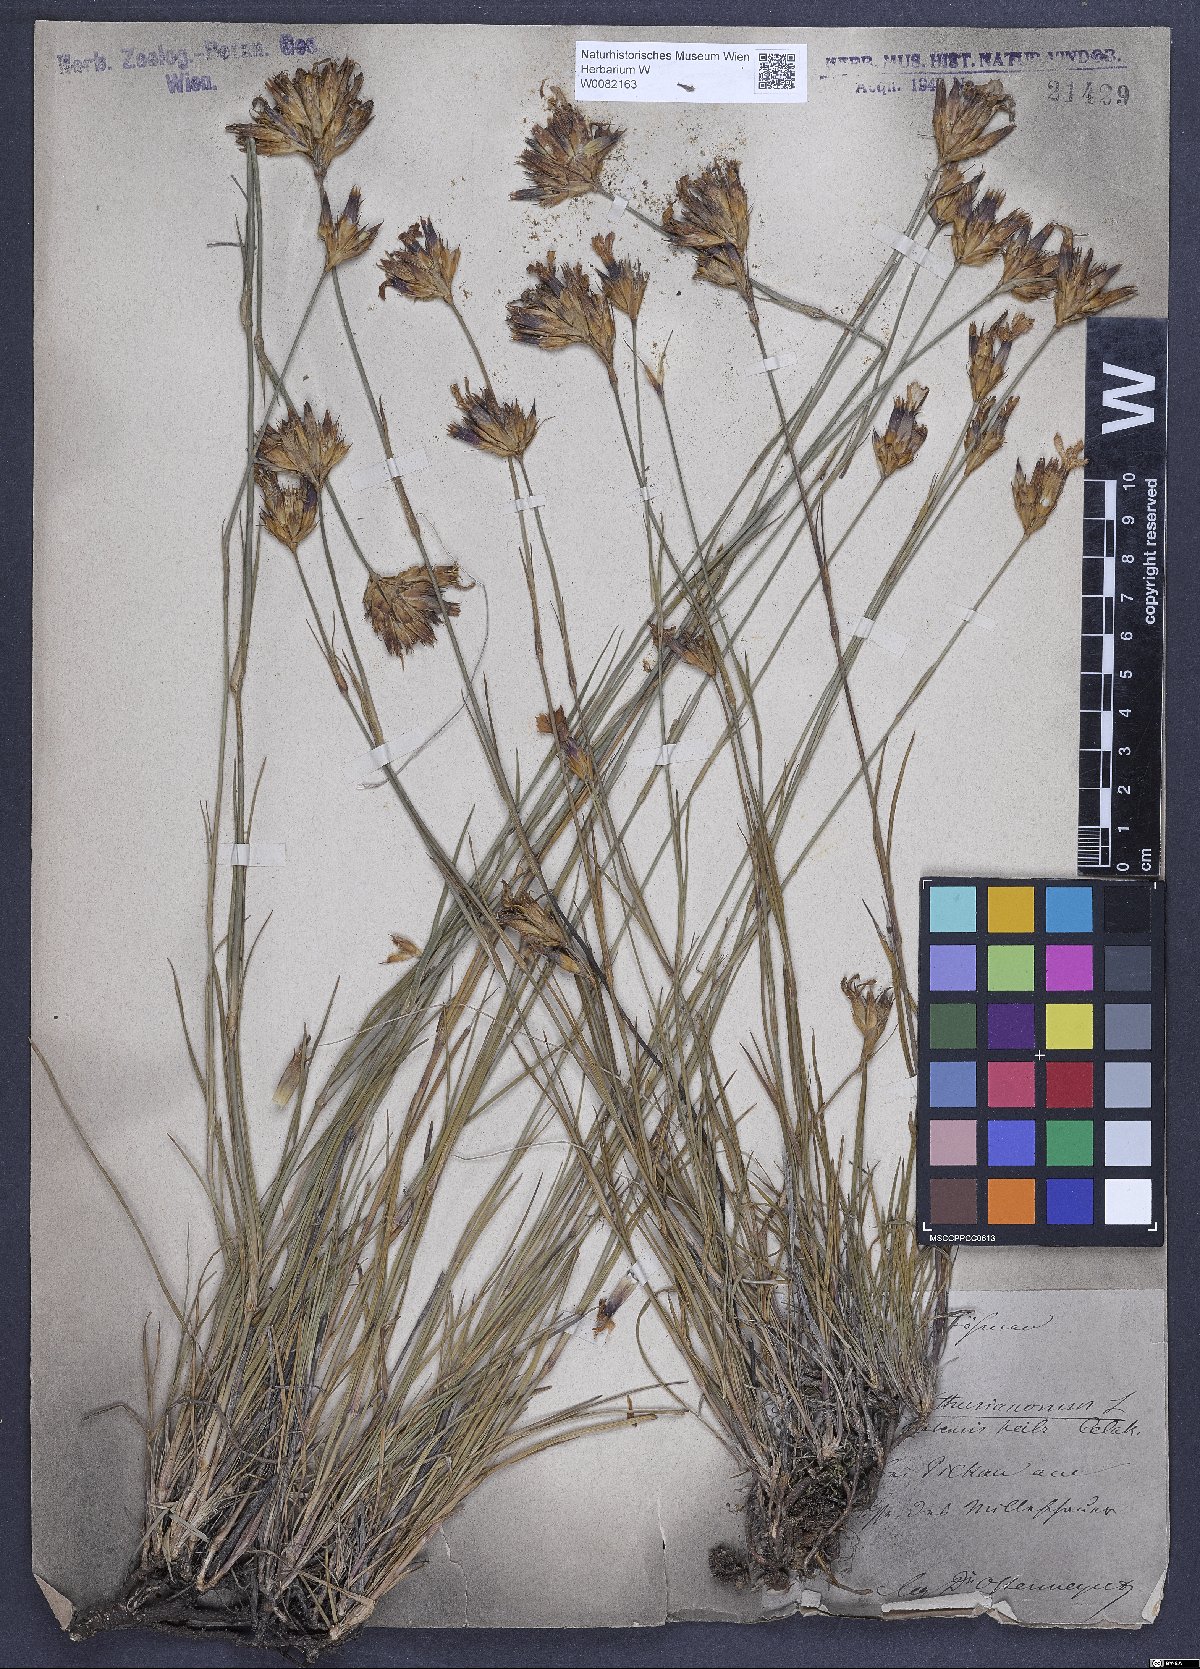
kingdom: Plantae
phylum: Tracheophyta
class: Magnoliopsida
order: Caryophyllales
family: Caryophyllaceae
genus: Dianthus
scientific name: Dianthus carthusianorum
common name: Carthusian pink
